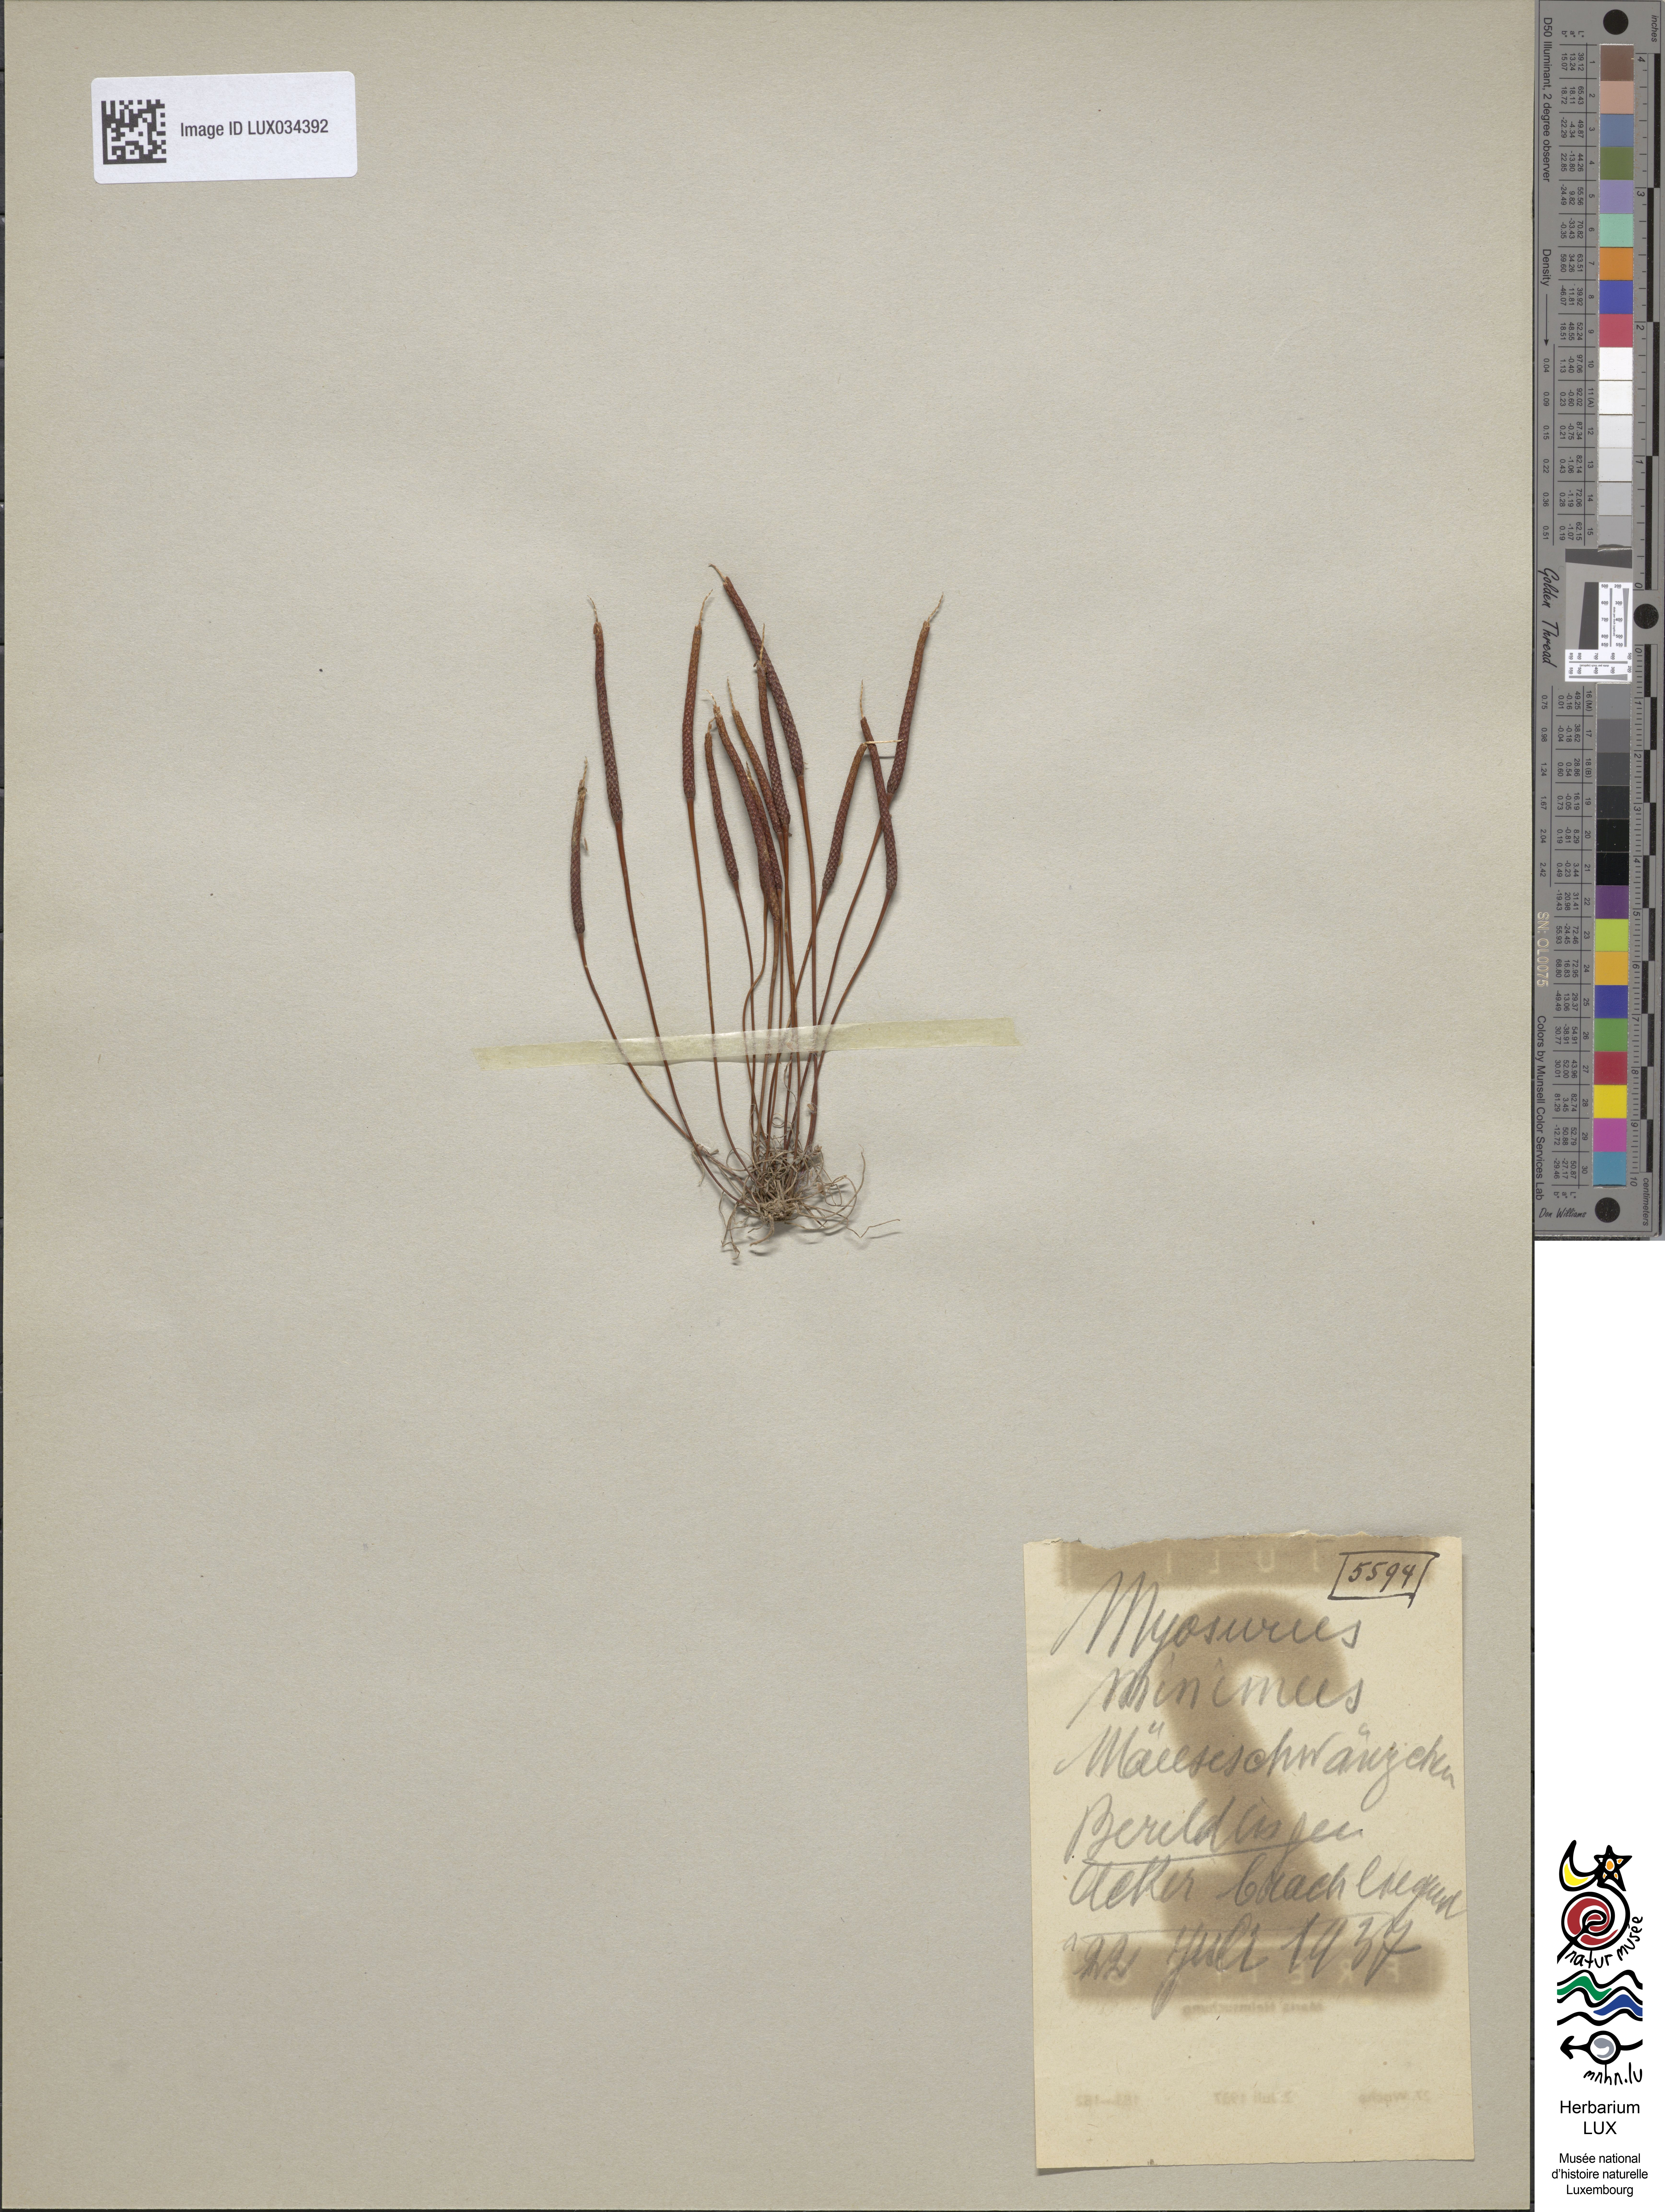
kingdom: Plantae
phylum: Tracheophyta
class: Magnoliopsida
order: Ranunculales
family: Ranunculaceae
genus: Myosurus
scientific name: Myosurus minimus
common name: Mousetail
